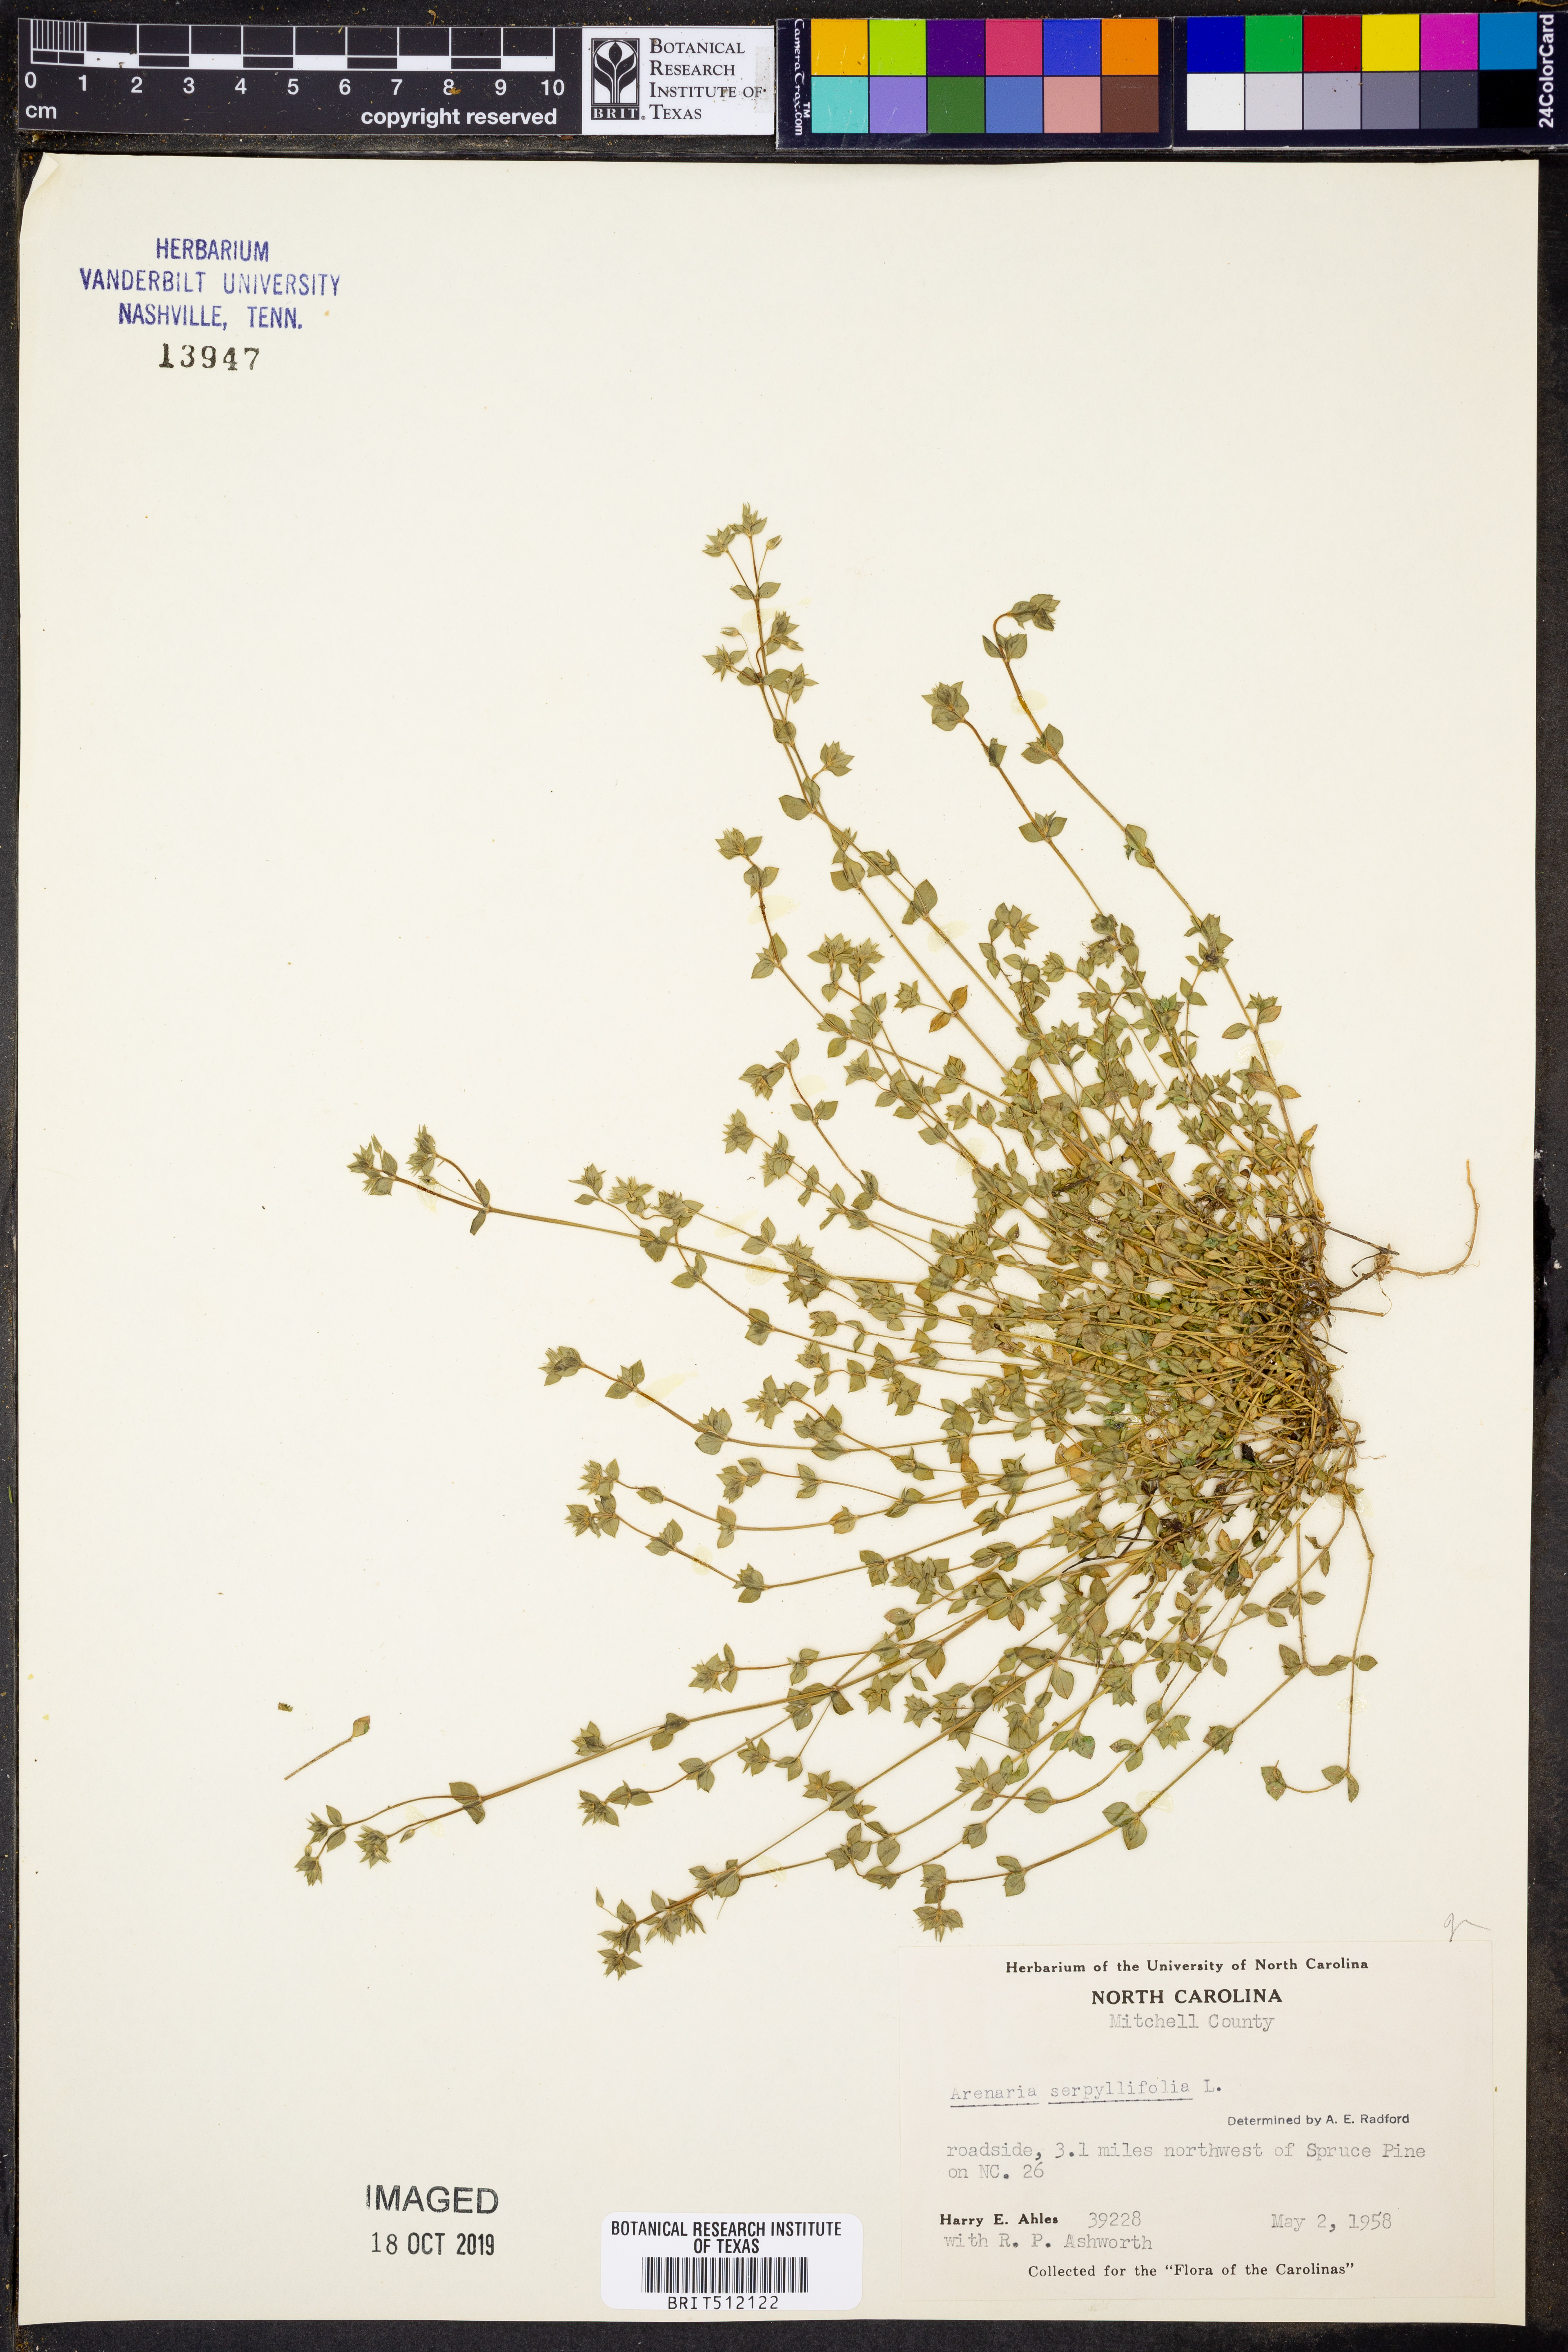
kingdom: Plantae
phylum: Tracheophyta
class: Magnoliopsida
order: Caryophyllales
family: Caryophyllaceae
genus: Arenaria
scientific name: Arenaria serpyllifolia
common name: Thyme-leaved sandwort
